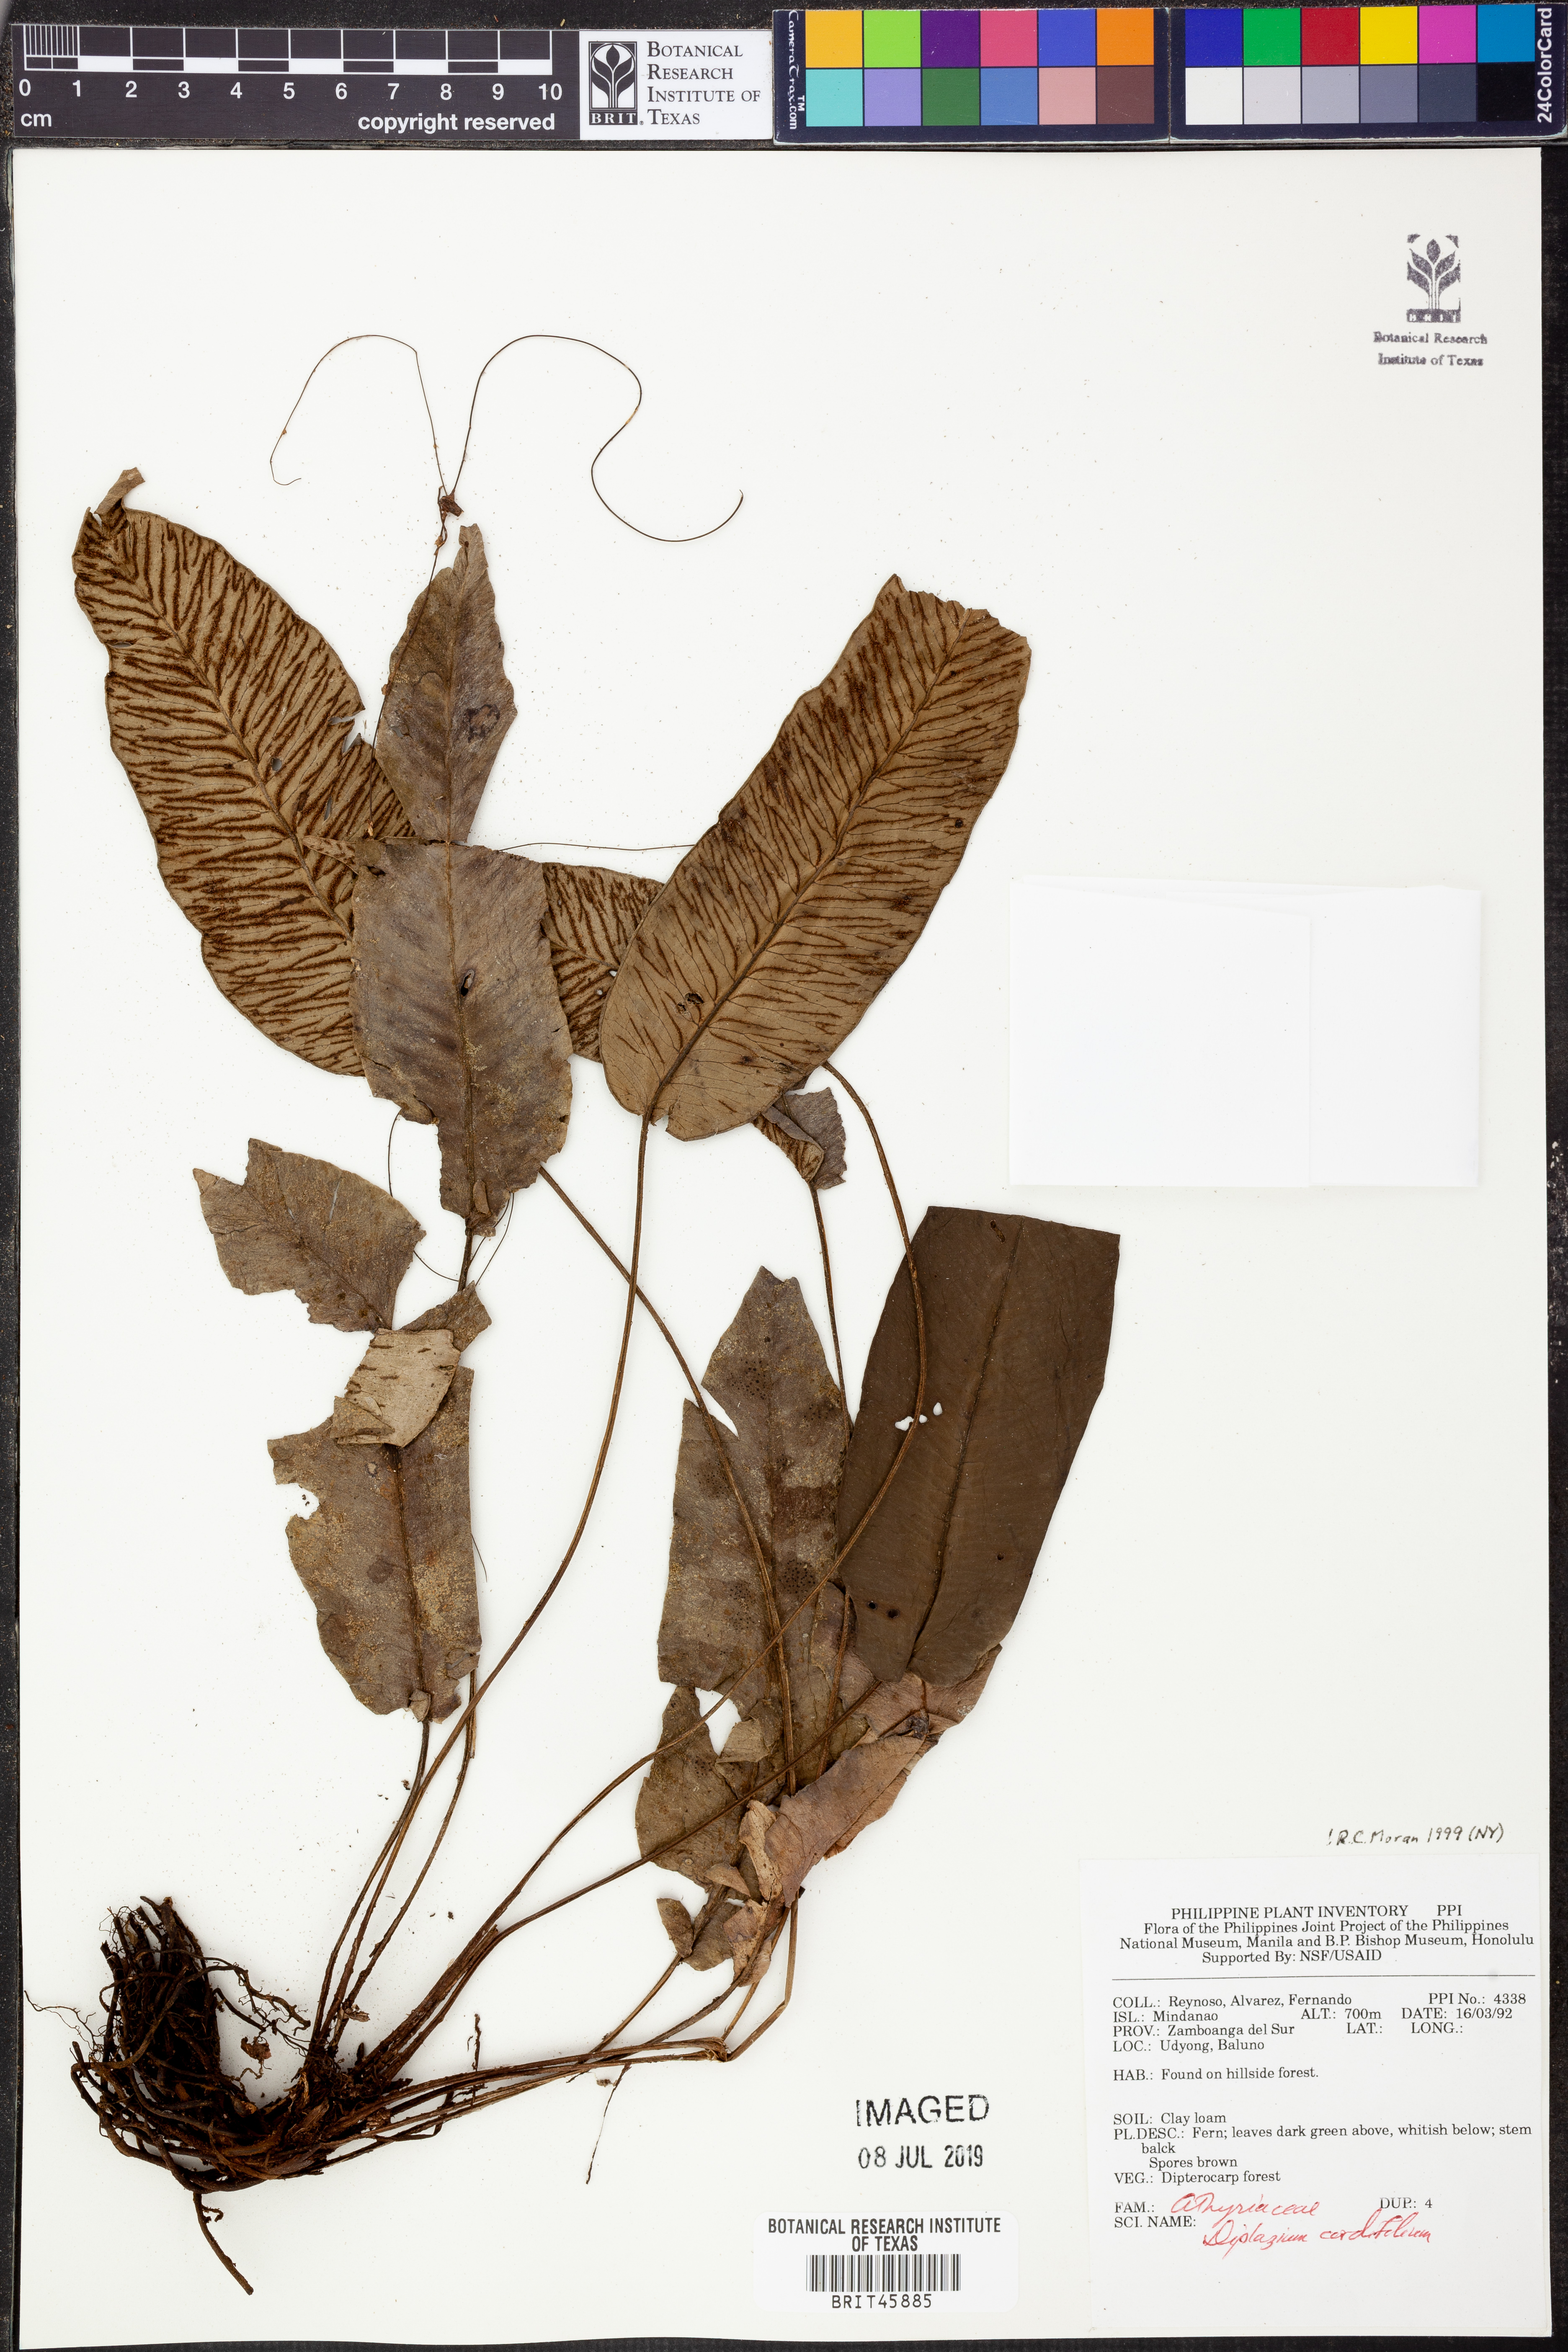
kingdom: Plantae
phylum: Tracheophyta
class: Polypodiopsida
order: Polypodiales
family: Athyriaceae
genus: Diplazium
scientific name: Diplazium cordifolium
